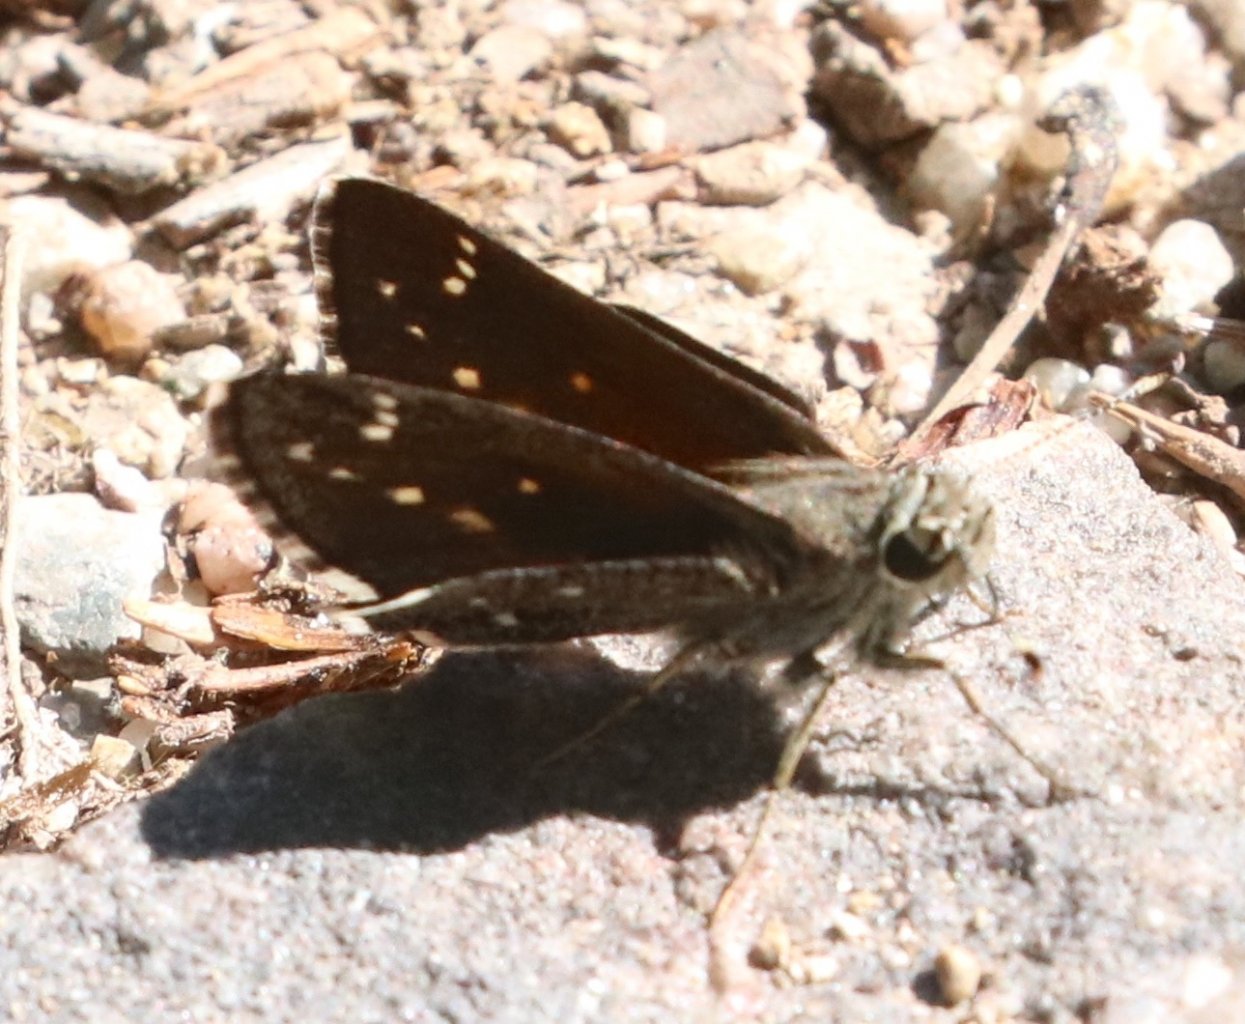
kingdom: Animalia
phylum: Arthropoda
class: Insecta
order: Lepidoptera
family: Hesperiidae
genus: Mastor
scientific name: Mastor exoteria
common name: Large Roadside-Skipper
